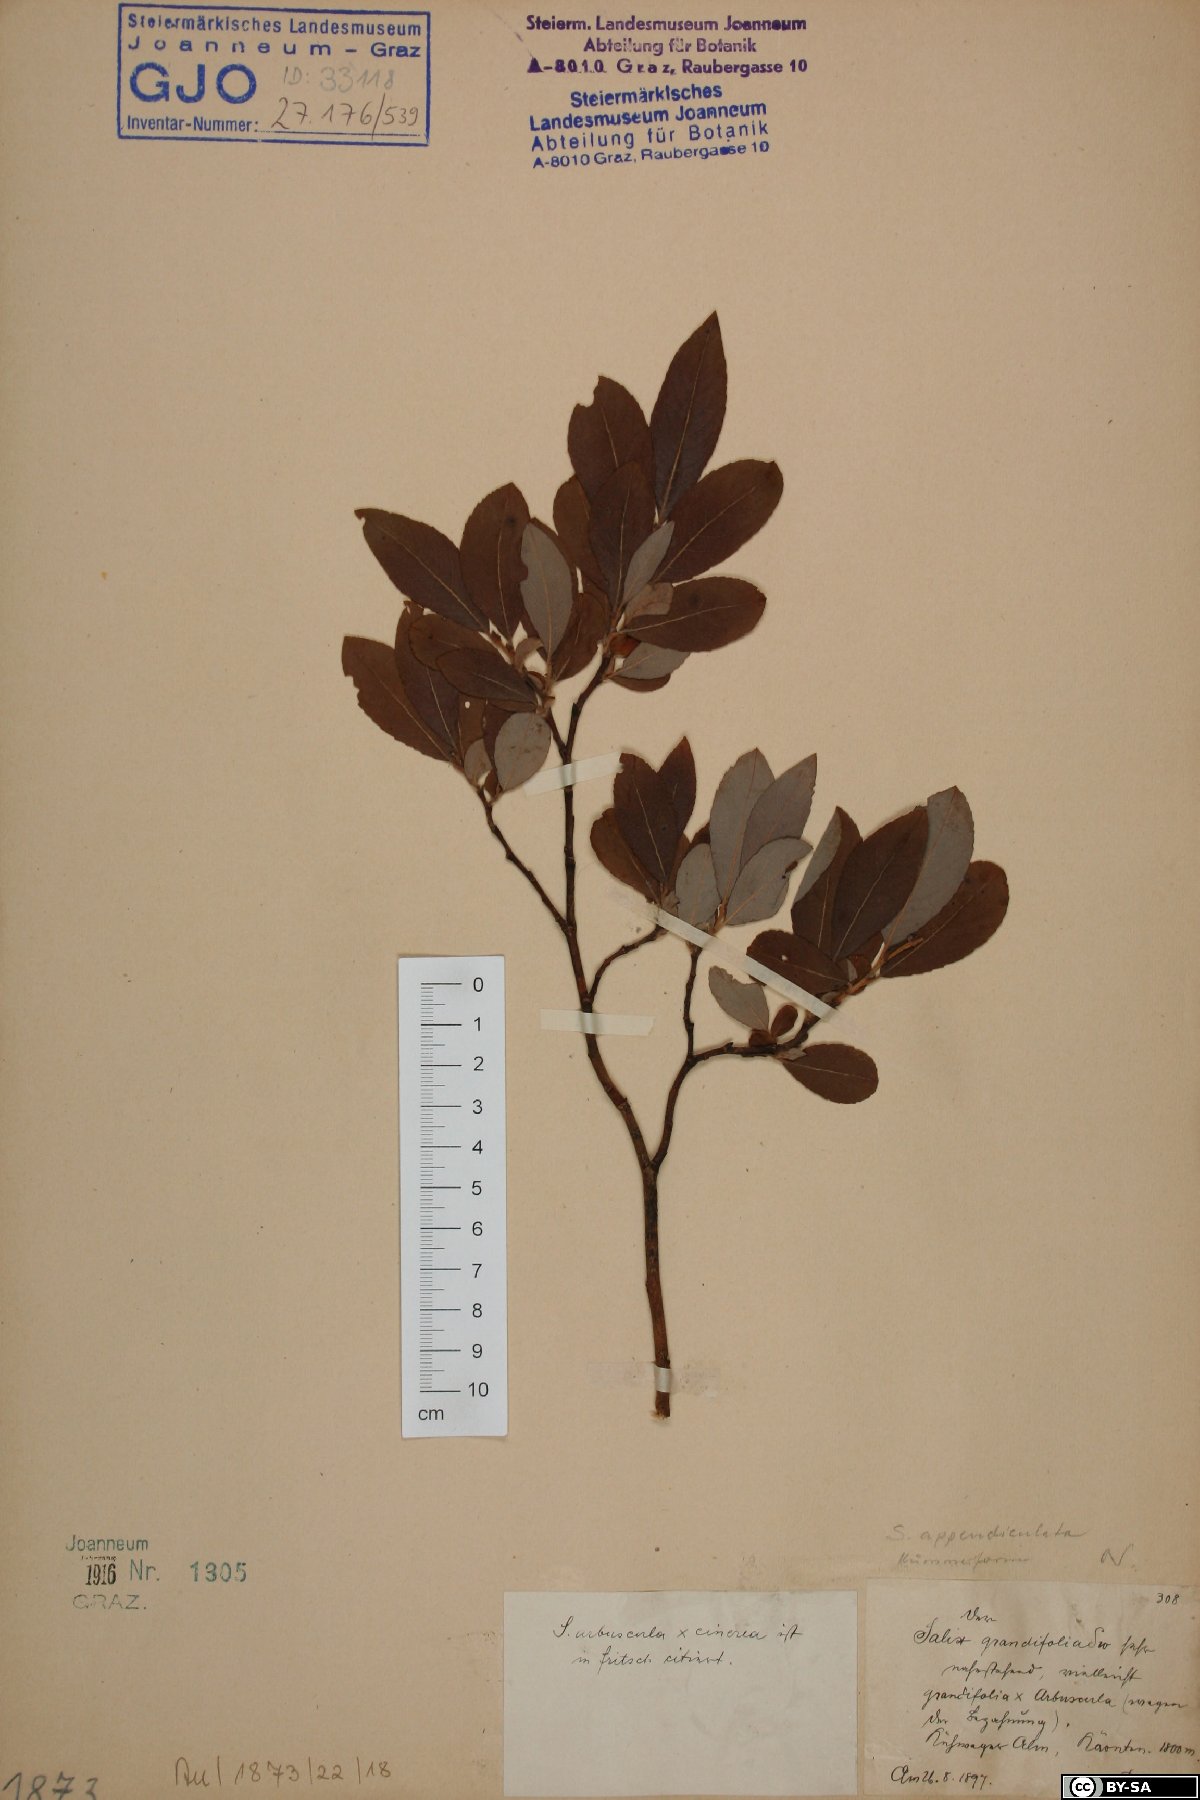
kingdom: Plantae
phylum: Tracheophyta
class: Magnoliopsida
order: Malpighiales
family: Salicaceae
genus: Salix
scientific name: Salix appendiculata
